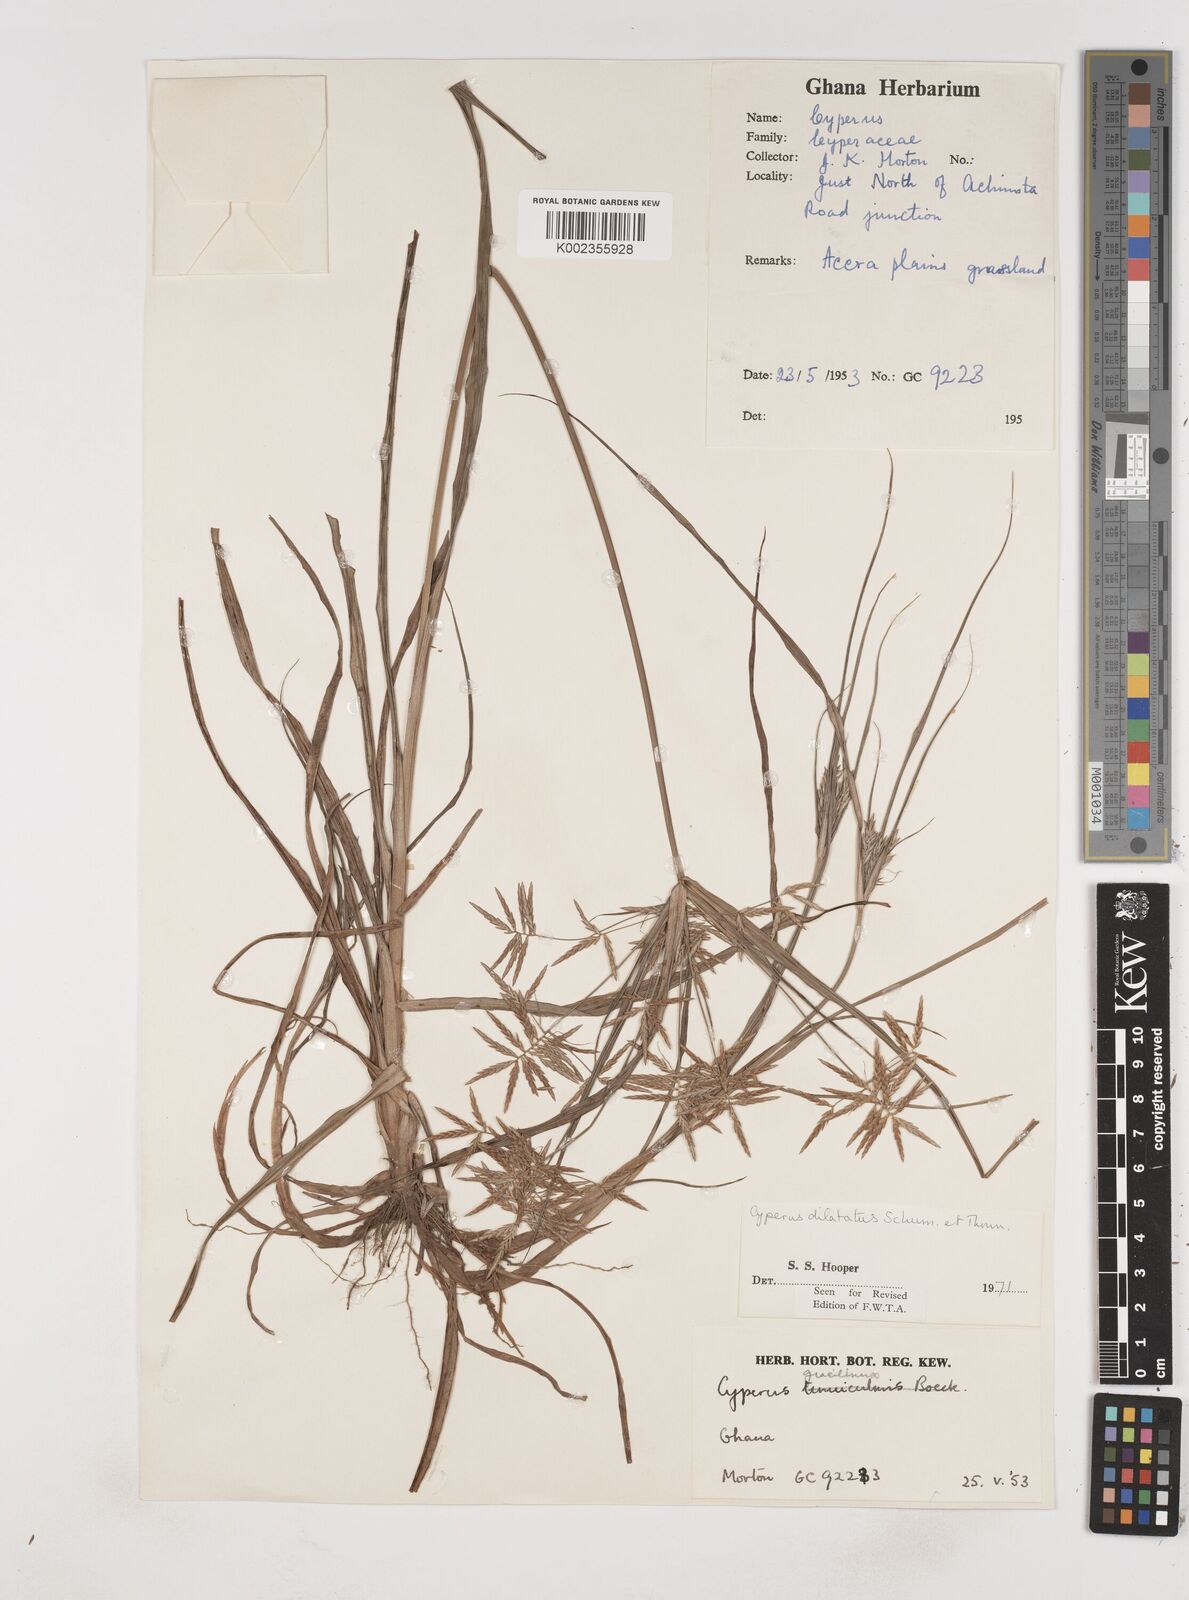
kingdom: Plantae
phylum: Tracheophyta
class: Liliopsida
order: Poales
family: Cyperaceae
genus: Cyperus
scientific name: Cyperus dilatatus
